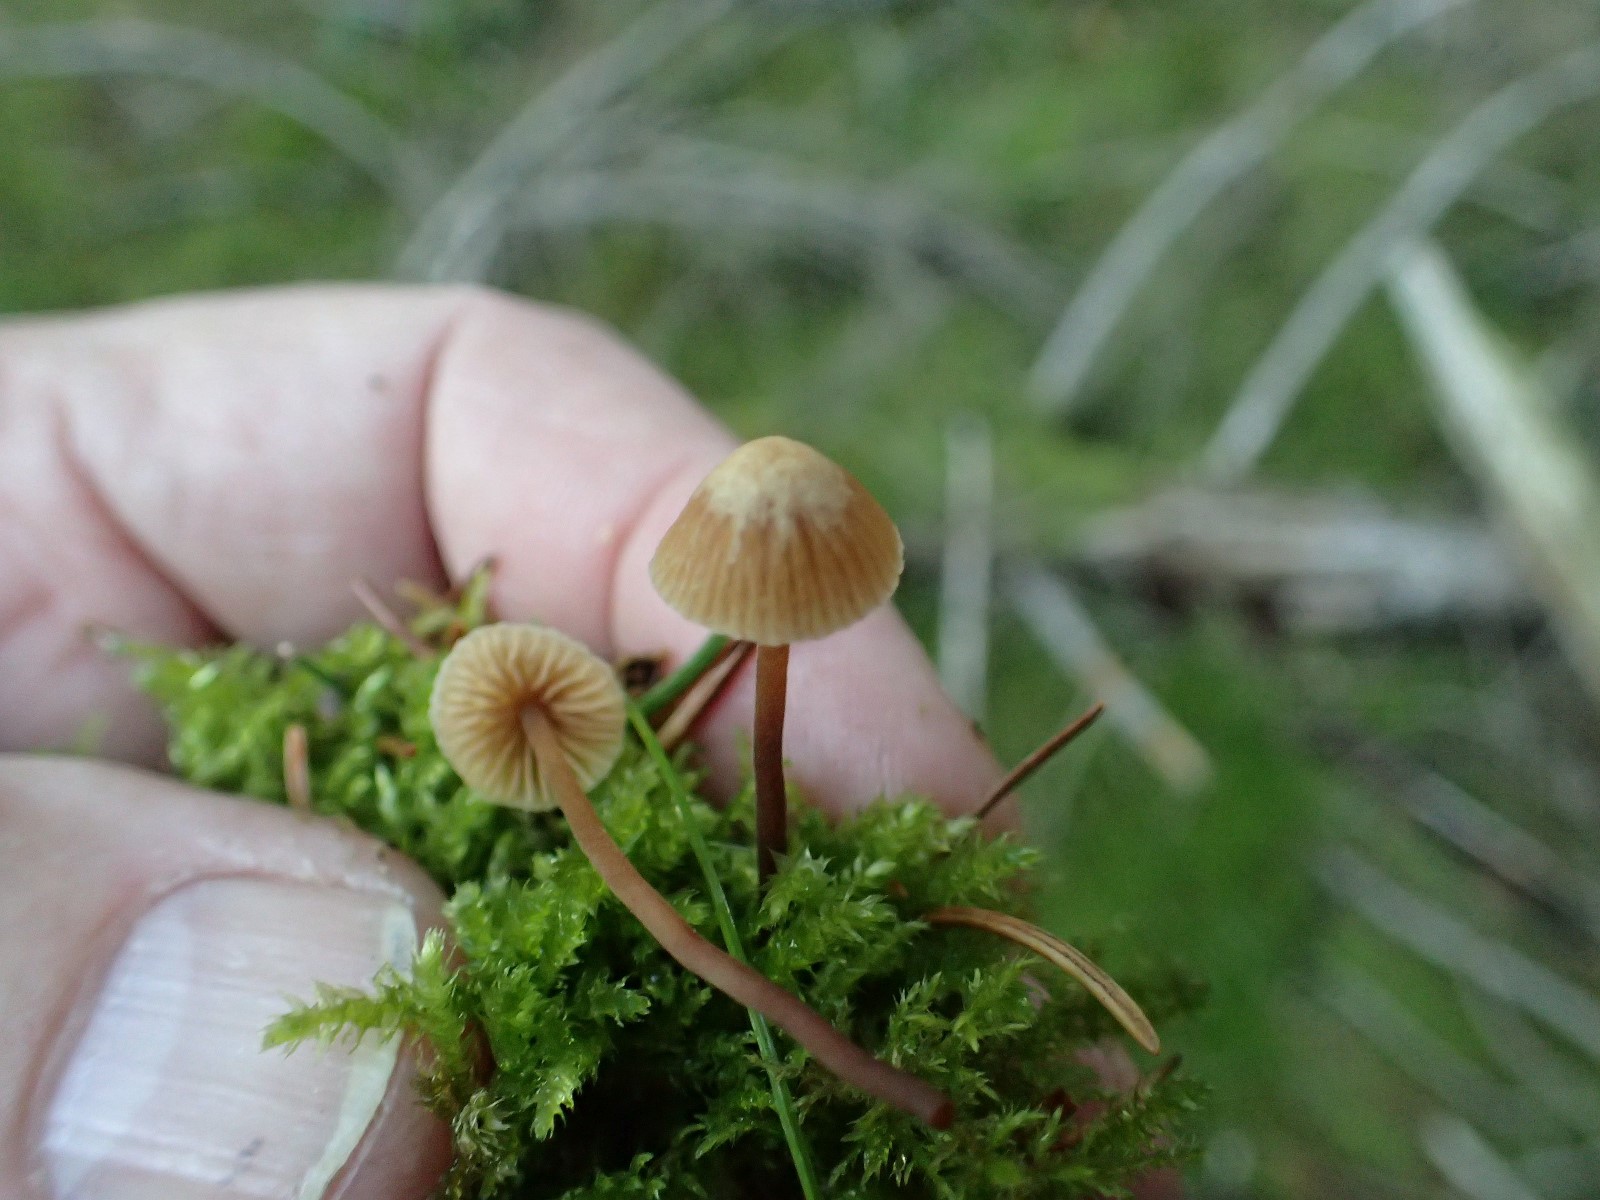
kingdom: Fungi
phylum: Basidiomycota
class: Agaricomycetes
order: Agaricales
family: Hymenogastraceae
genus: Galerina
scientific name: Galerina
